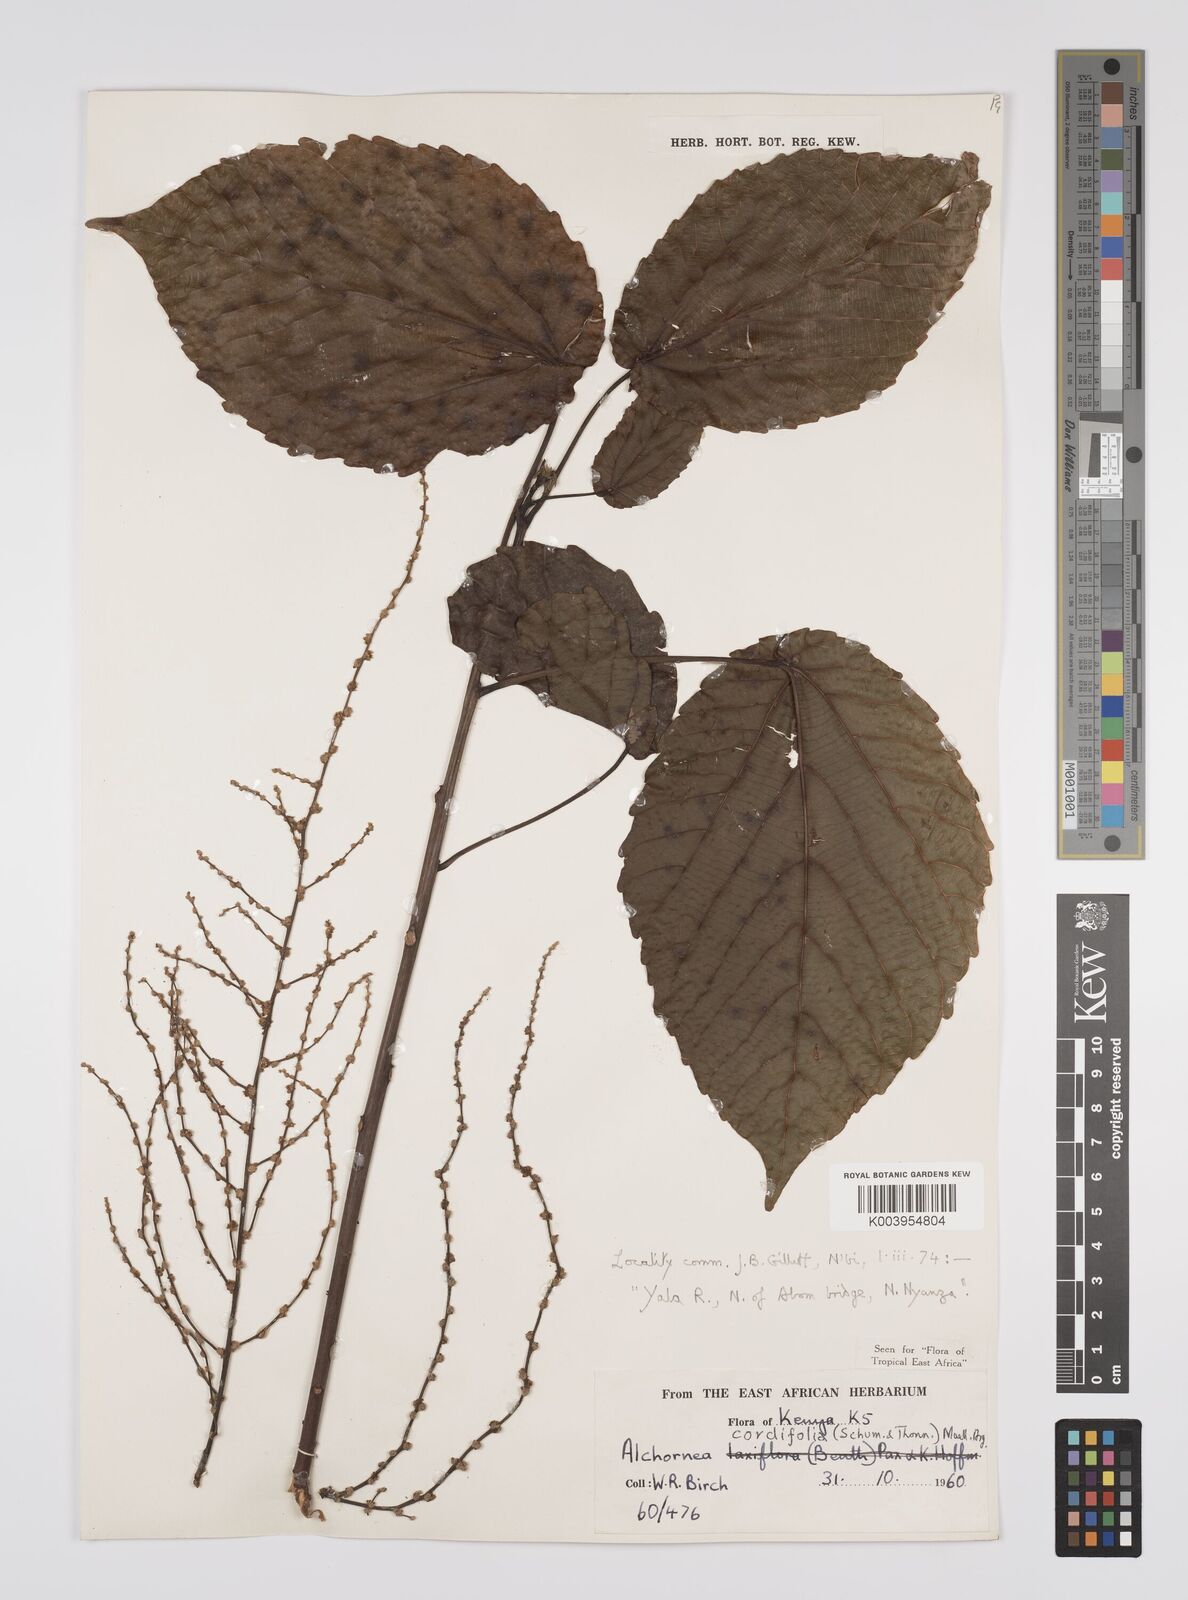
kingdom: Plantae
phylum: Tracheophyta
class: Magnoliopsida
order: Malpighiales
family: Euphorbiaceae
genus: Alchornea
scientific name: Alchornea cordifolia
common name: Christmasbush
